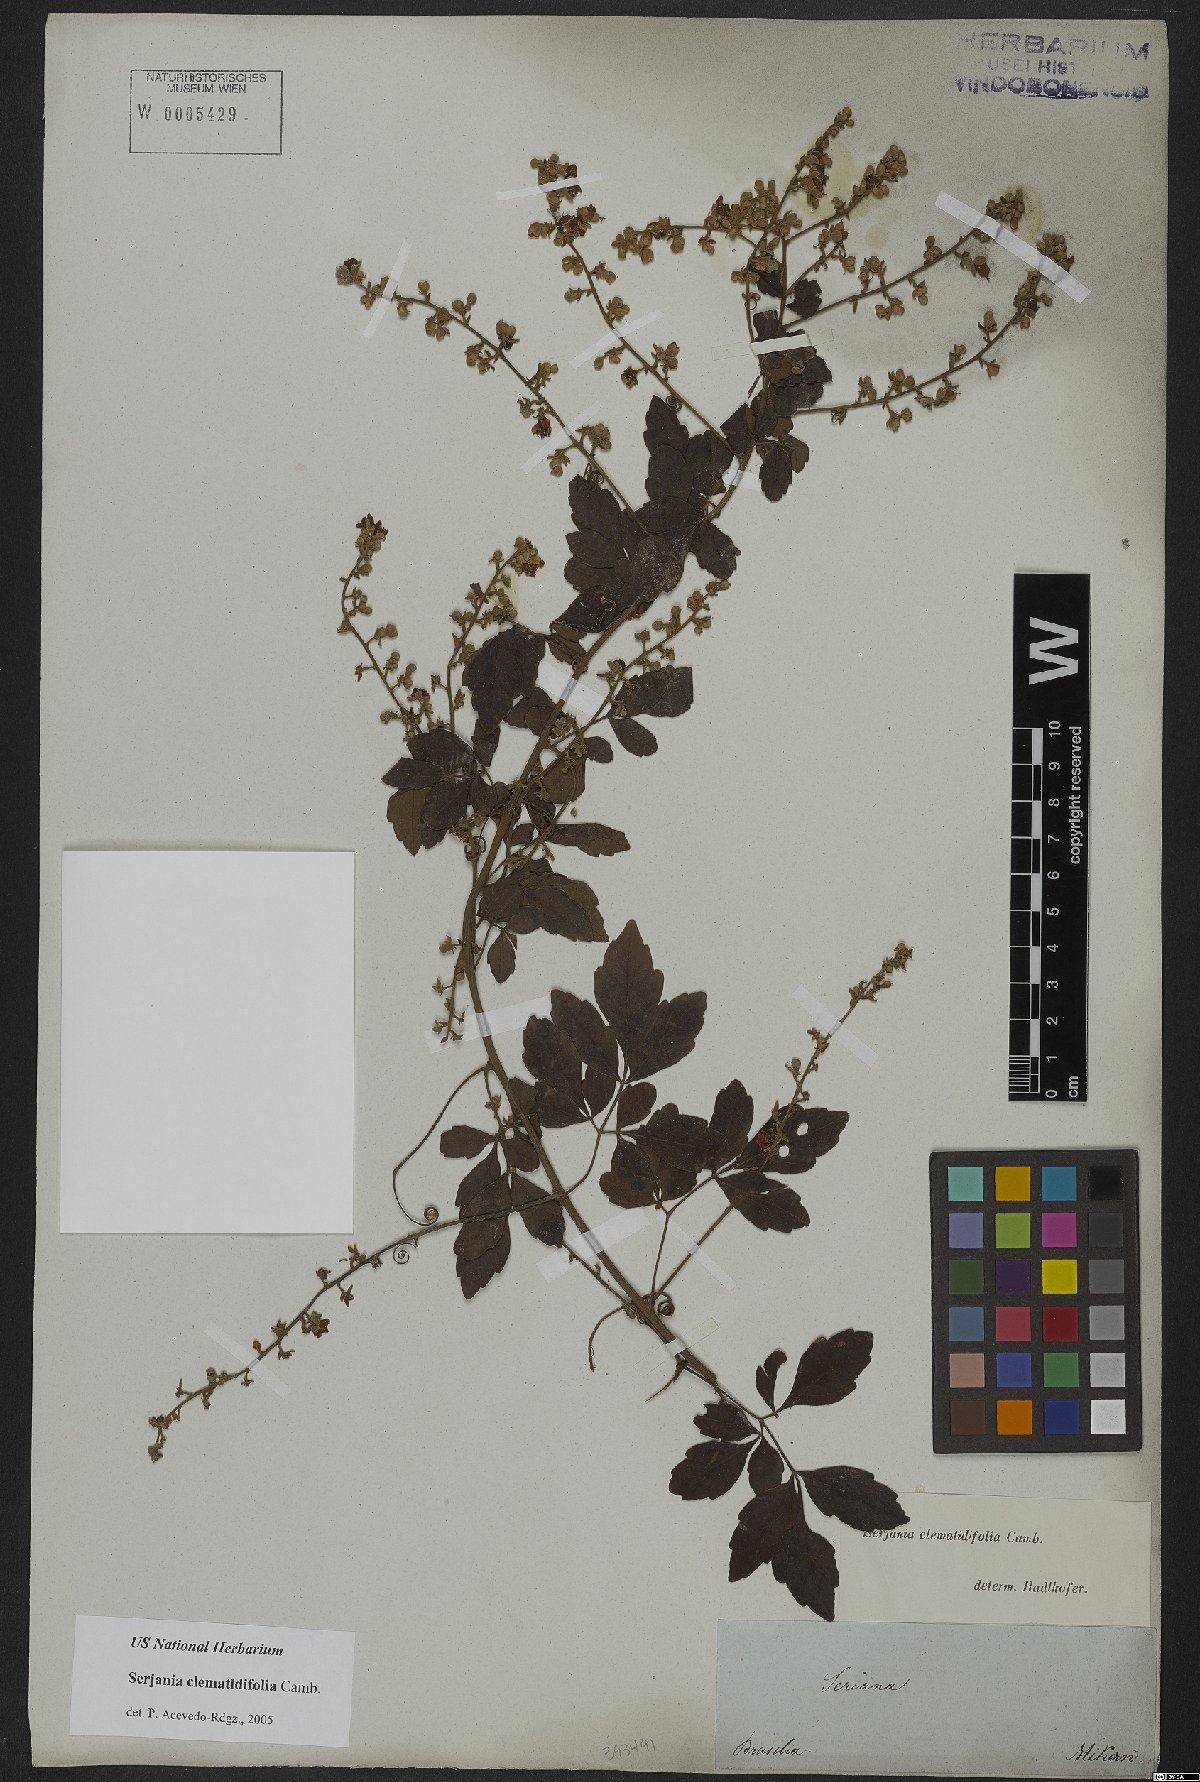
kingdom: Plantae
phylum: Tracheophyta
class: Magnoliopsida
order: Sapindales
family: Sapindaceae
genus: Serjania
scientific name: Serjania clematidifolia
